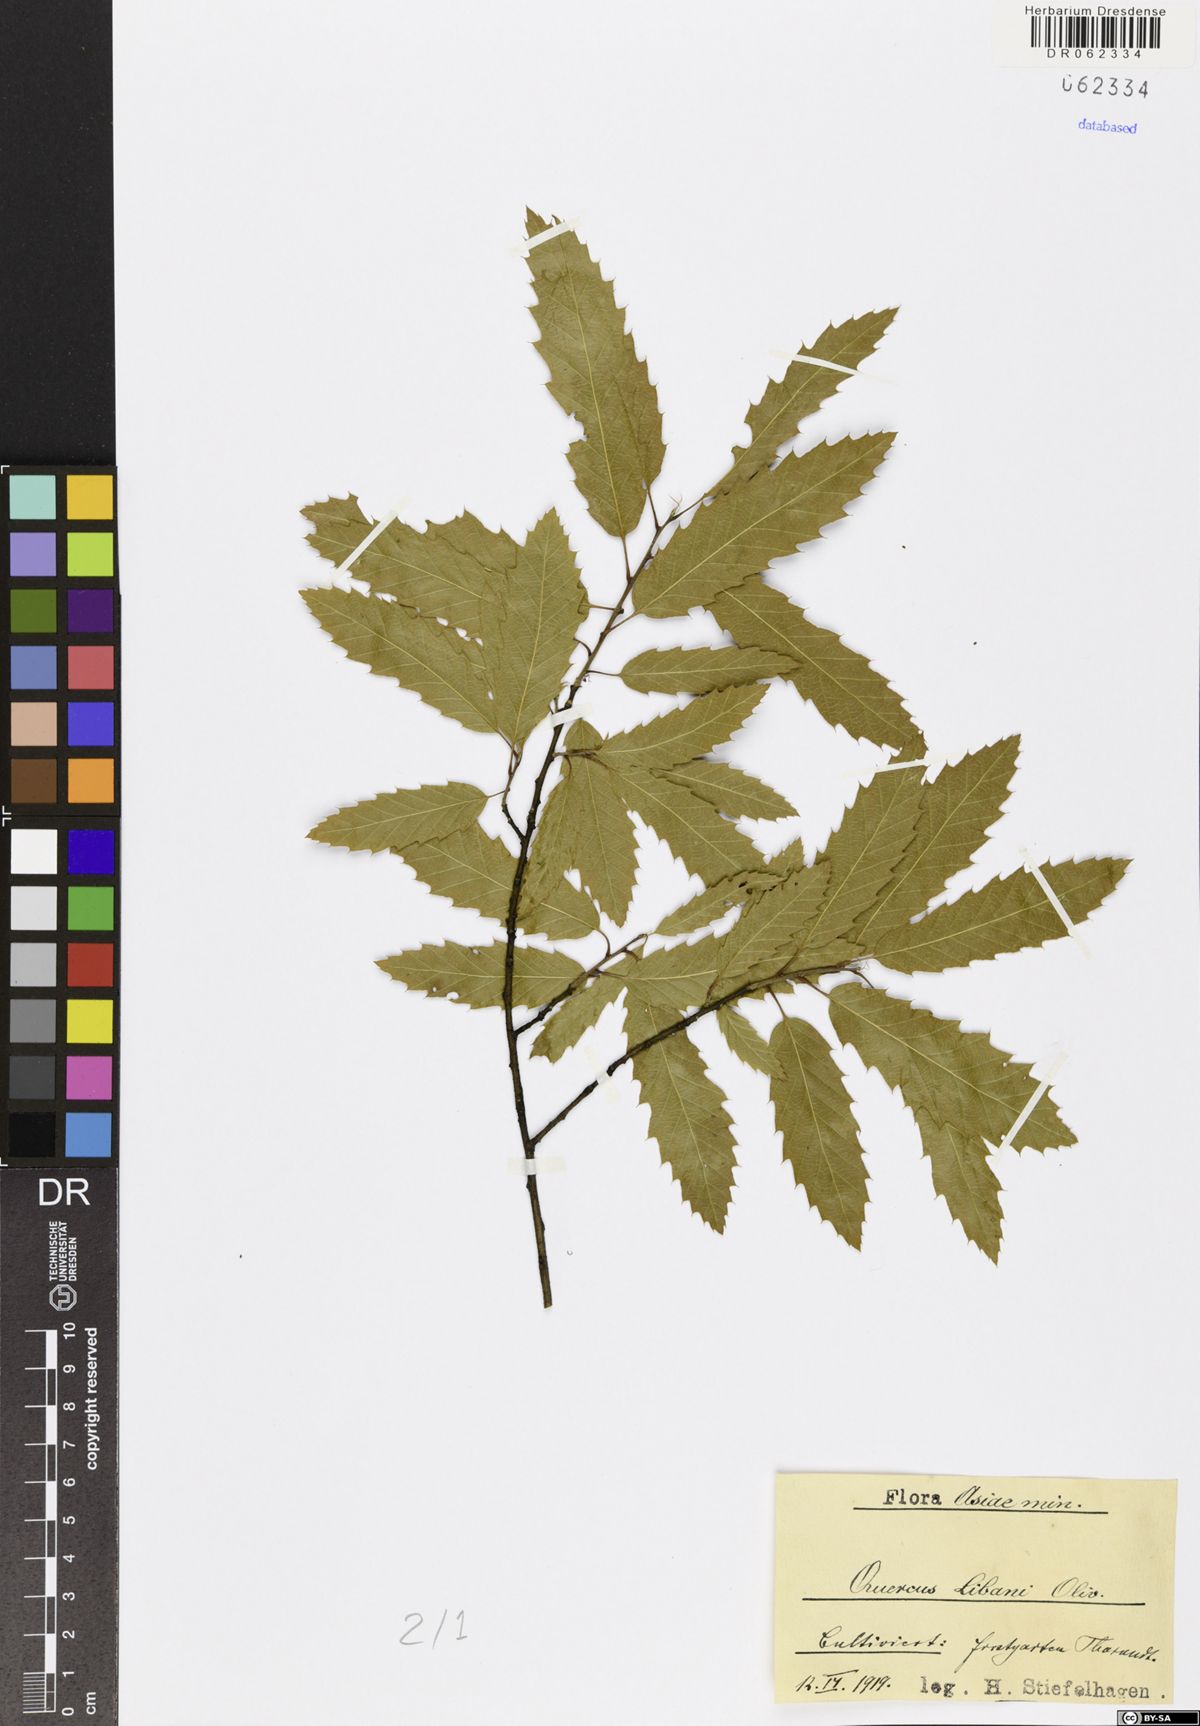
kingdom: Plantae
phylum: Tracheophyta
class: Magnoliopsida
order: Fagales
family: Fagaceae
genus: Quercus
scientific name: Quercus libani
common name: Lebanon oak
